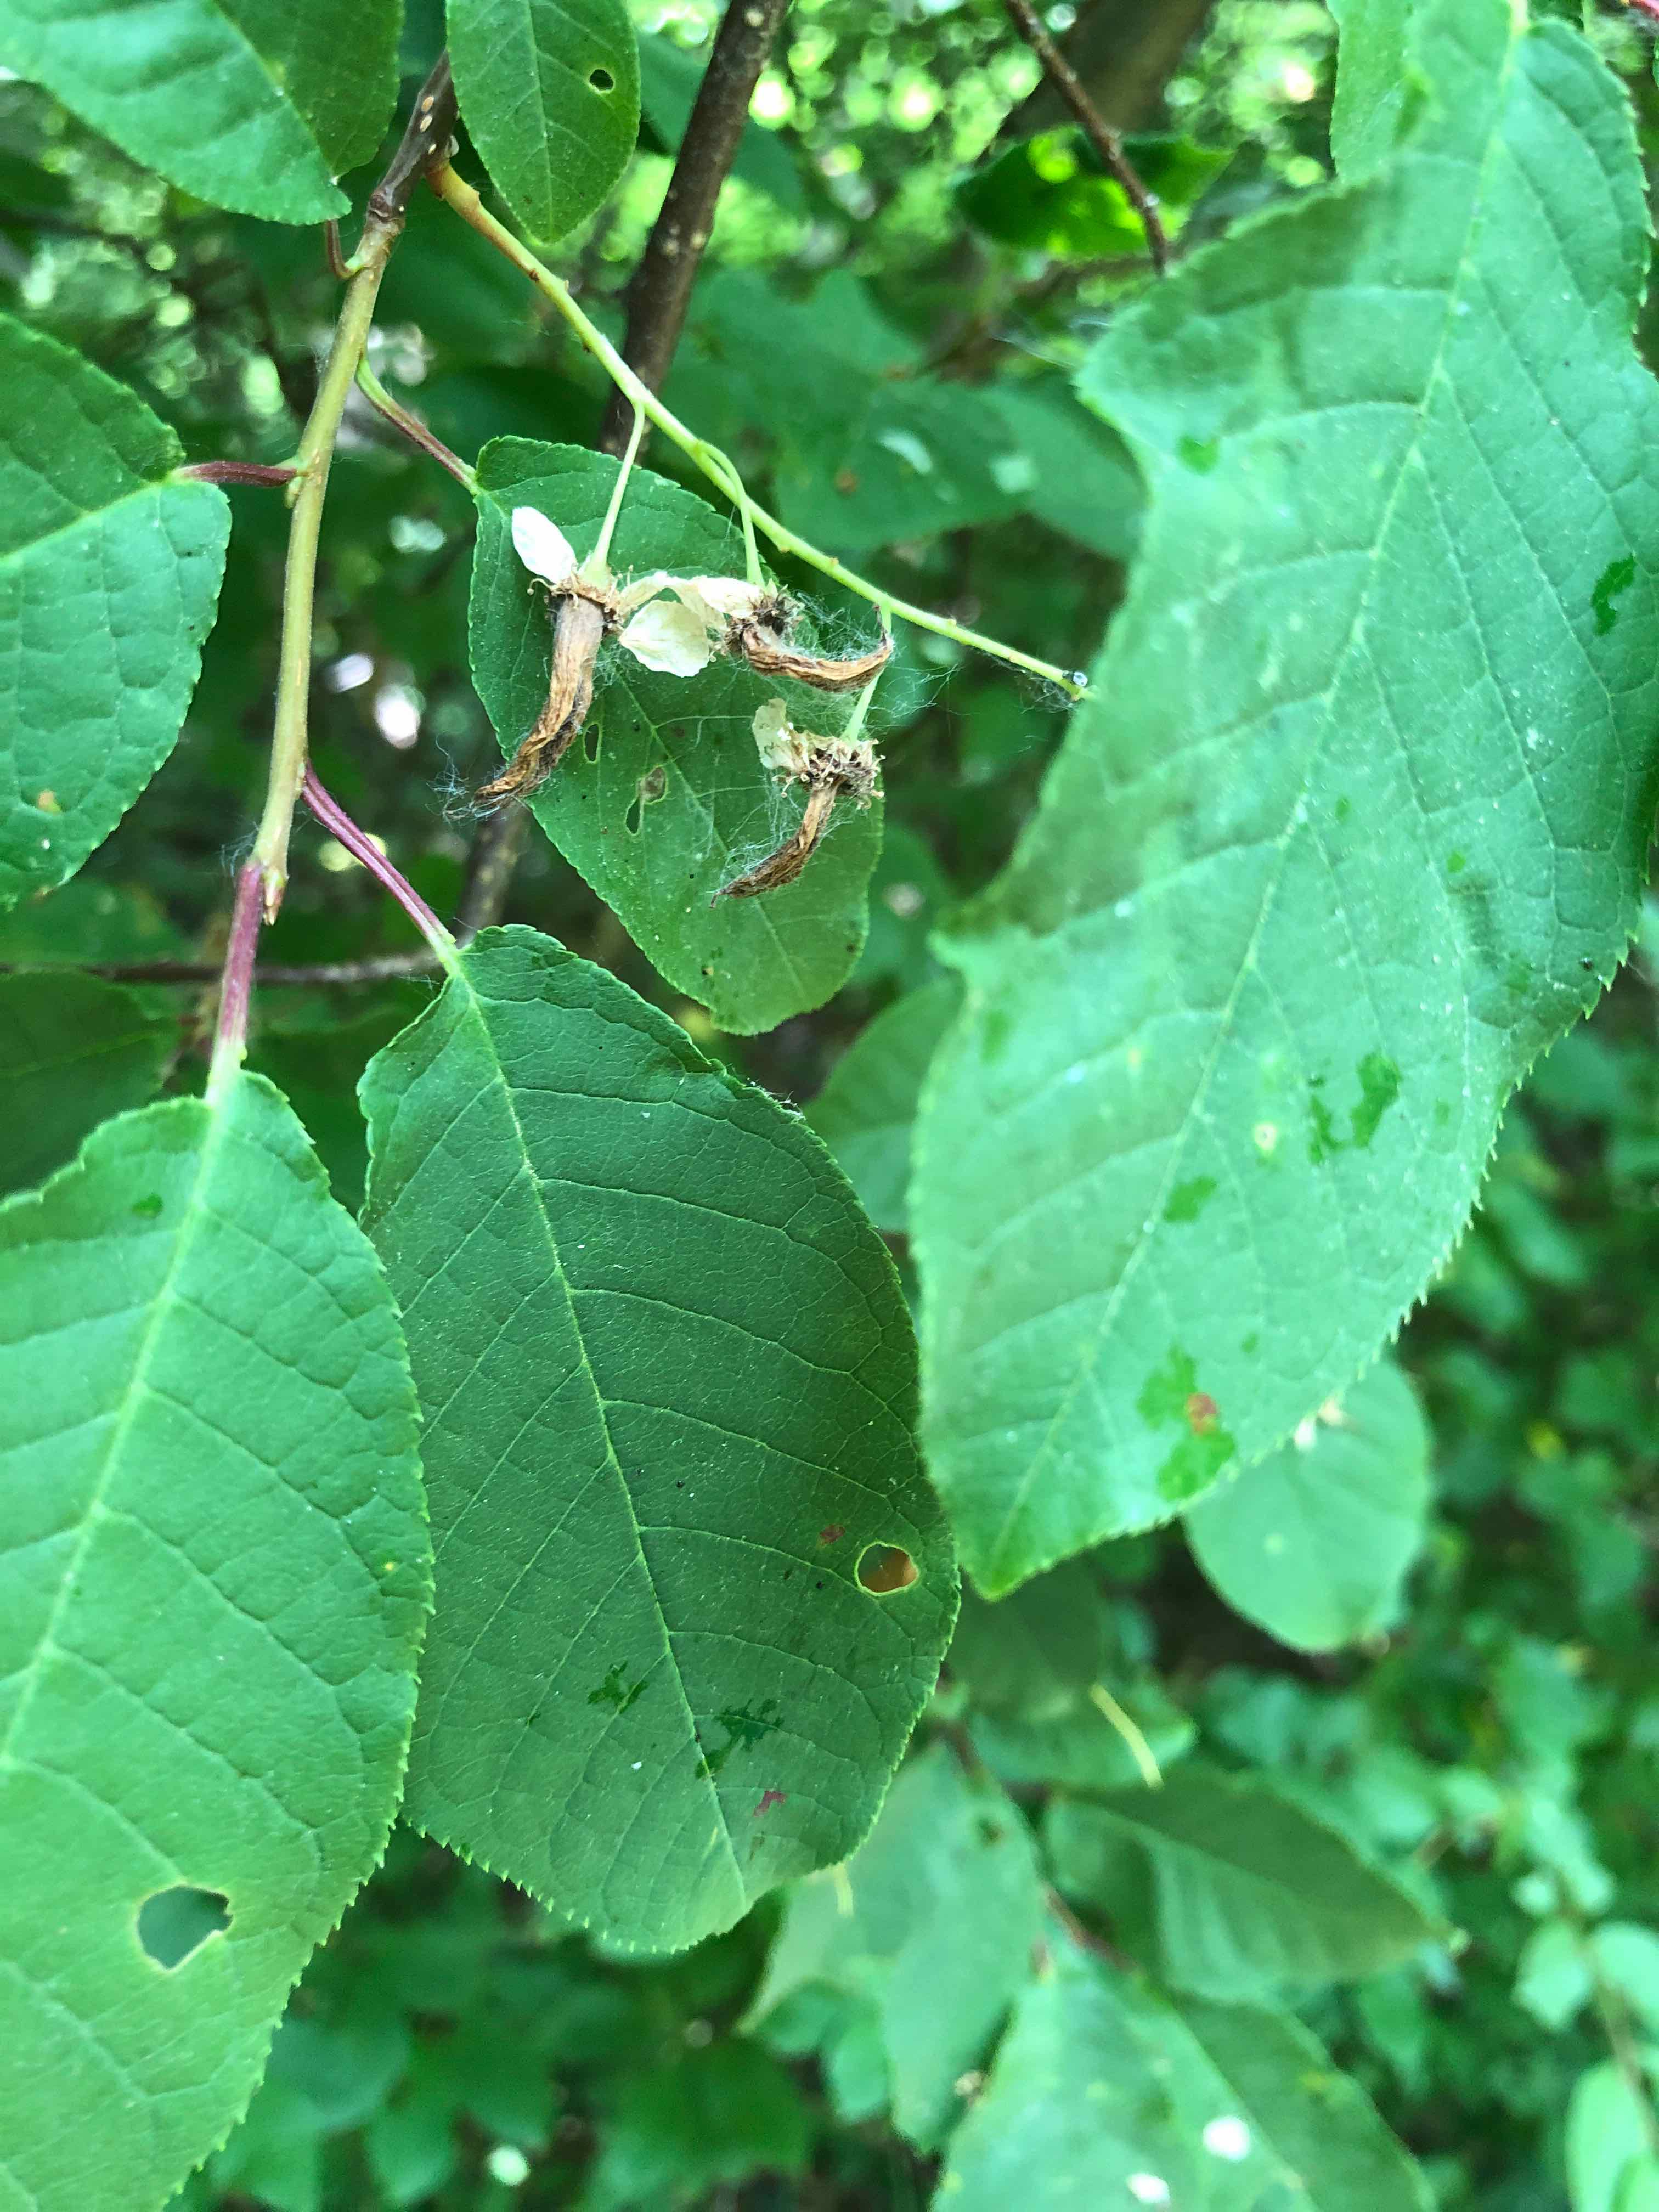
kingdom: Fungi
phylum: Ascomycota
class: Taphrinomycetes
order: Taphrinales
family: Taphrinaceae
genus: Taphrina
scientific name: Taphrina padi
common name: Bird cherry pocket
